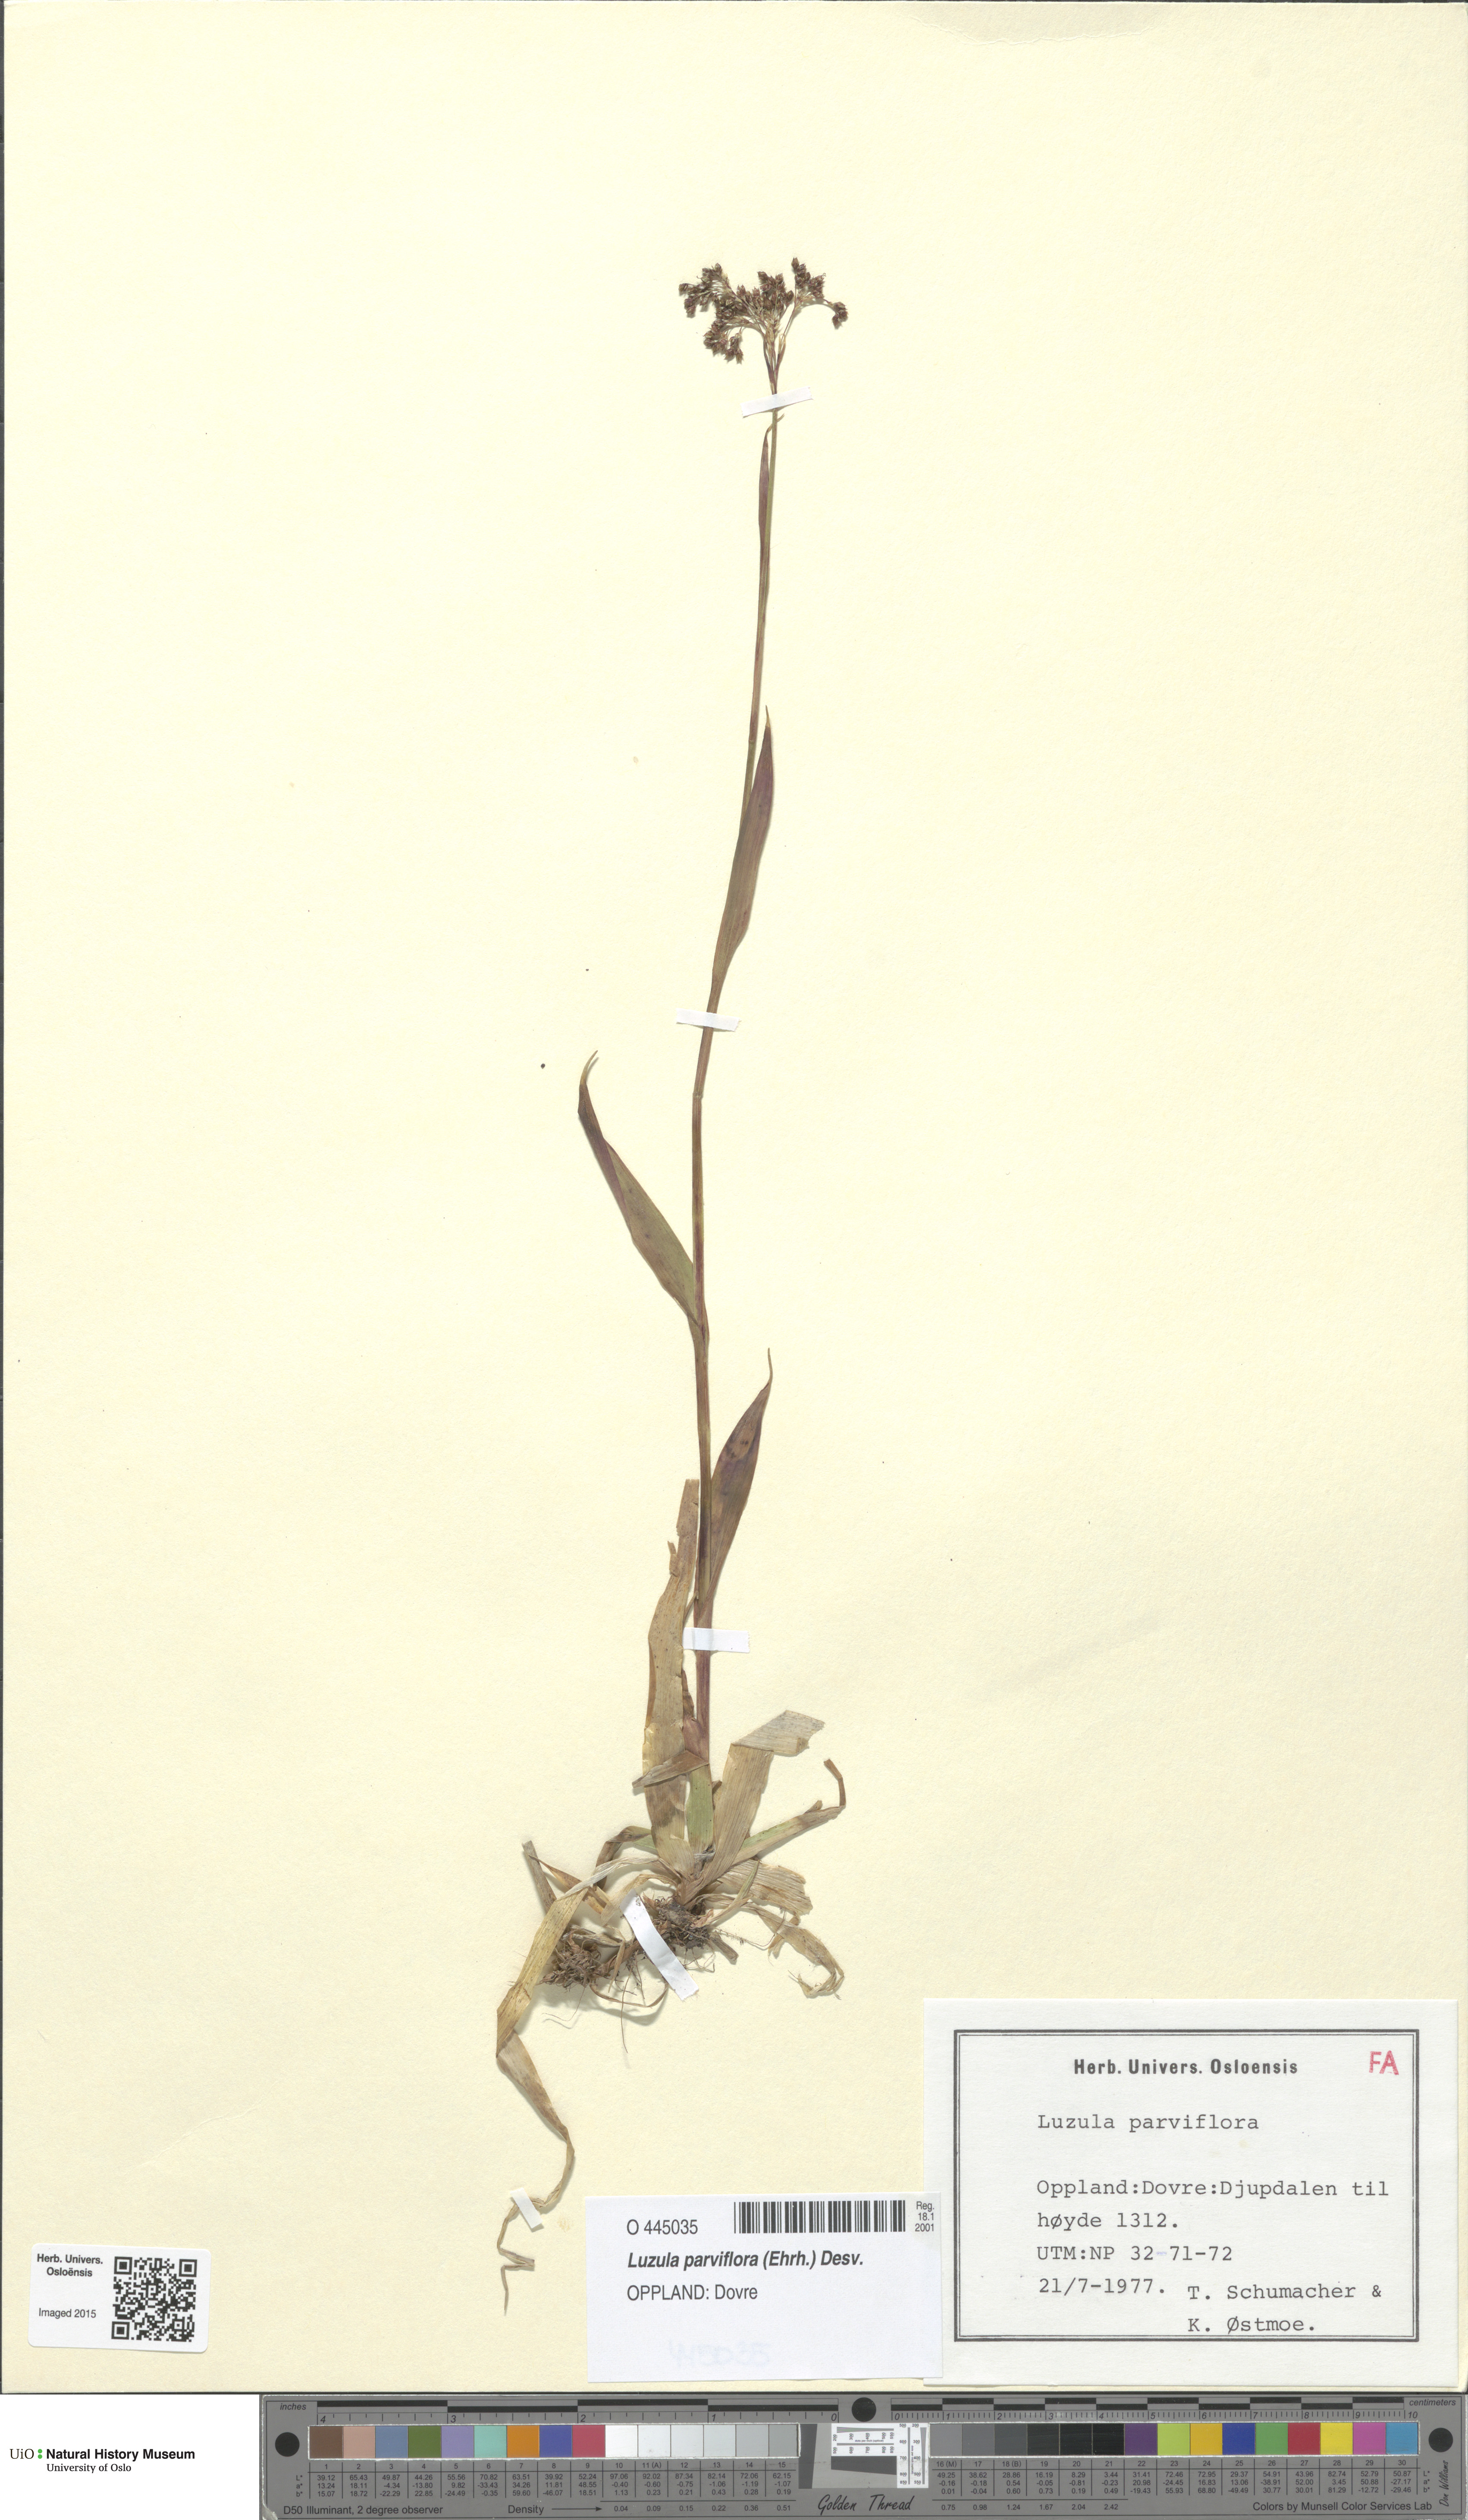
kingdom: Plantae
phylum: Tracheophyta
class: Liliopsida
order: Poales
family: Juncaceae
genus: Luzula
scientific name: Luzula parviflora
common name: Millet woodrush
